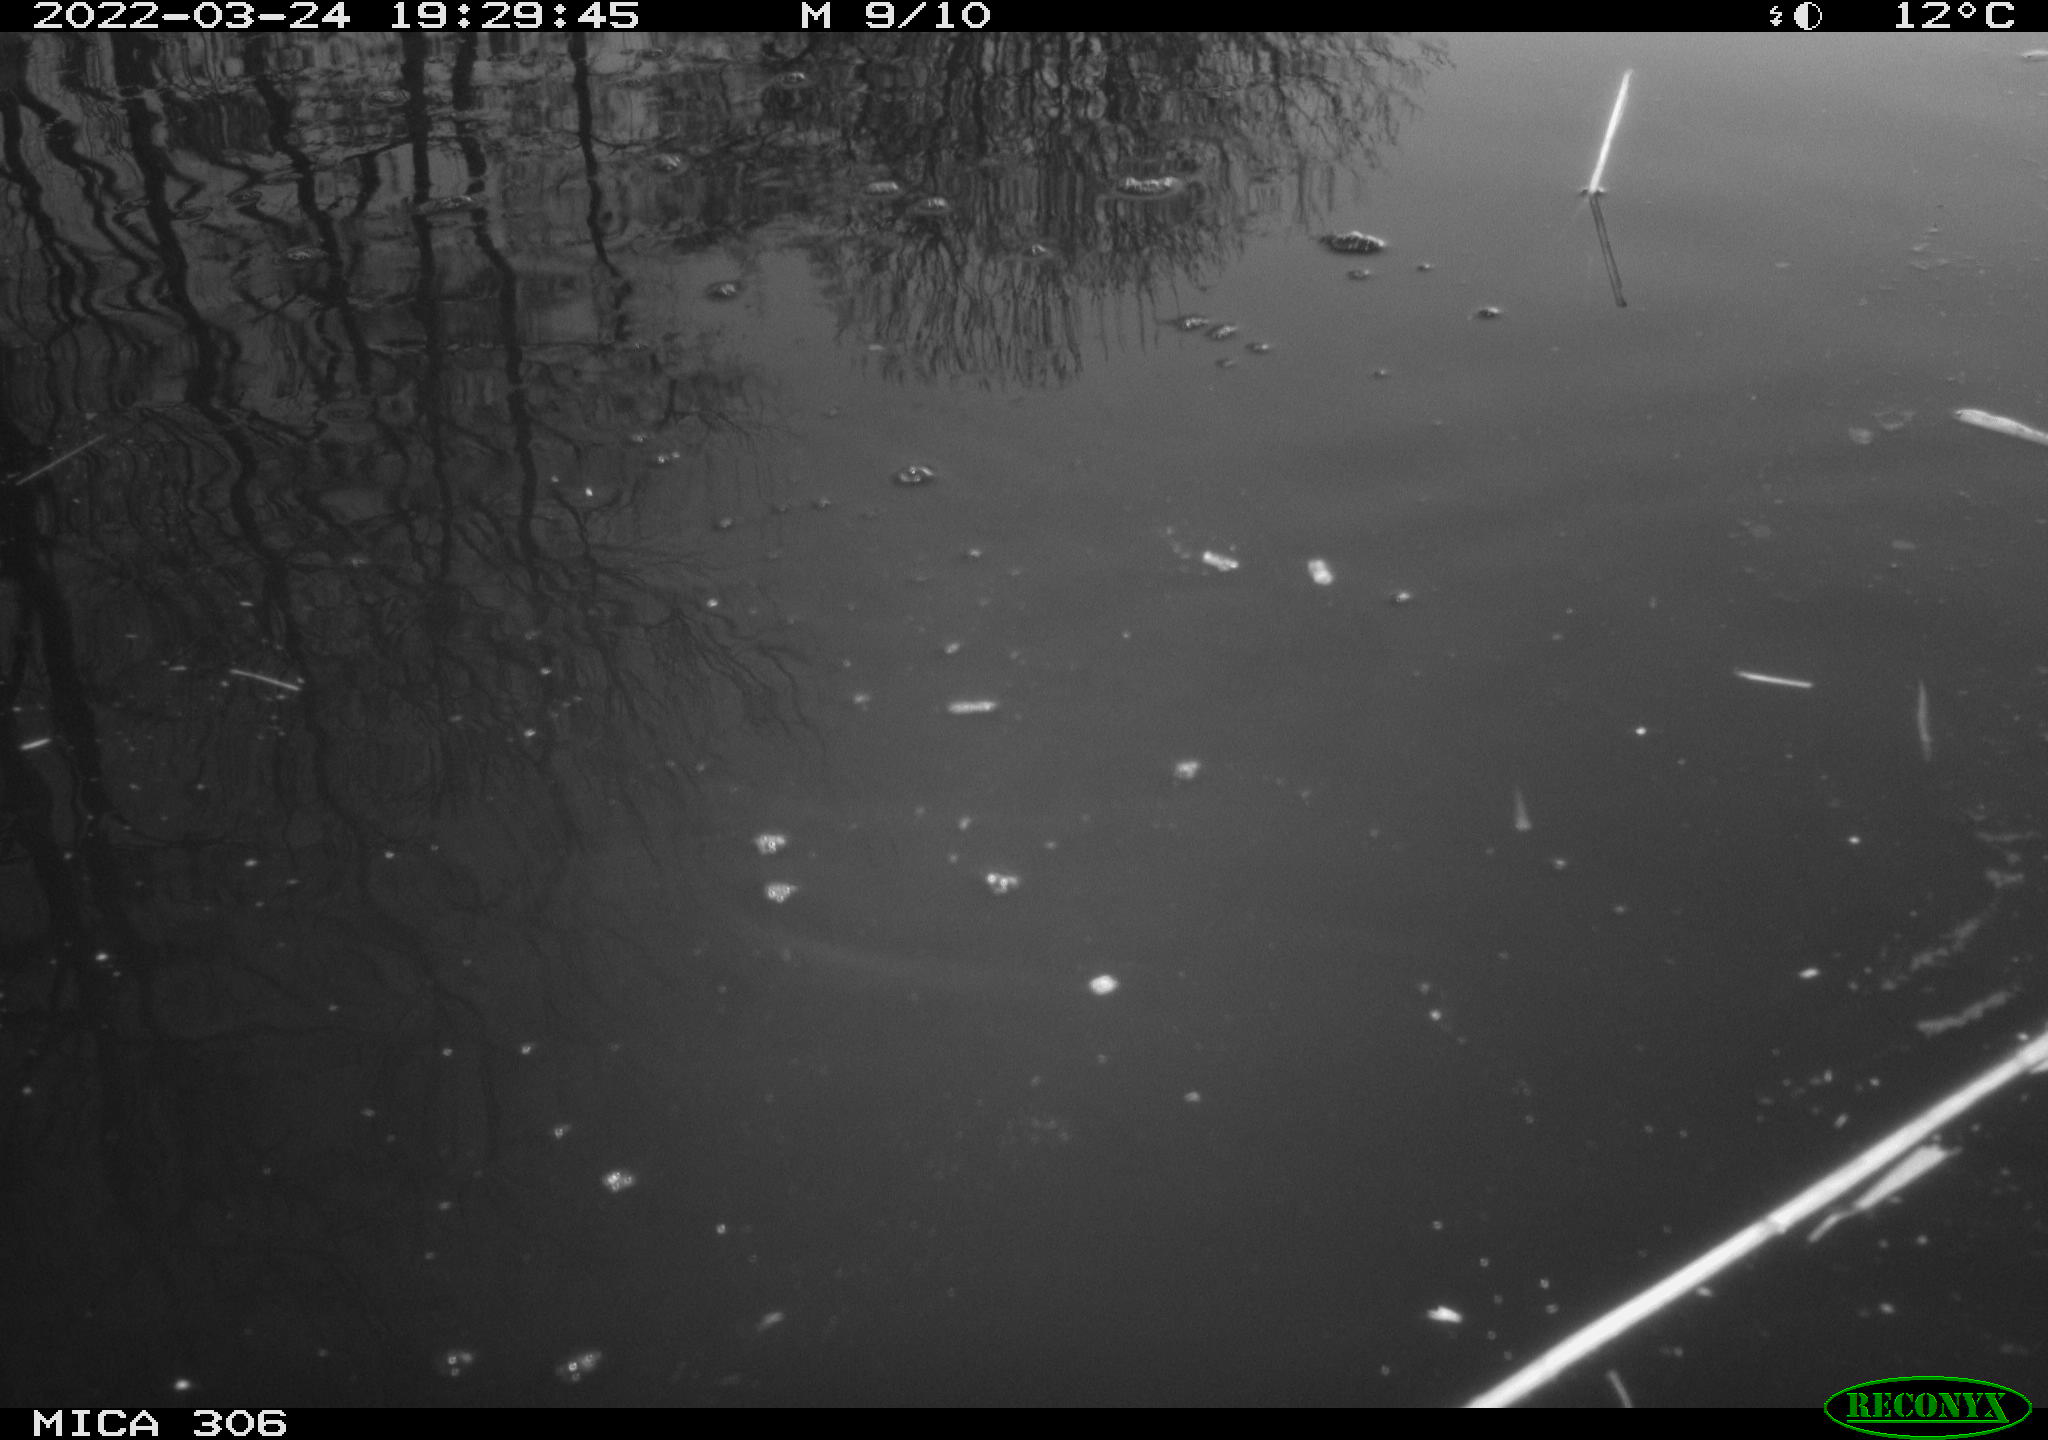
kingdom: Animalia
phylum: Chordata
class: Aves
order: Anseriformes
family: Anatidae
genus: Anas
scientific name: Anas platyrhynchos
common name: Mallard
